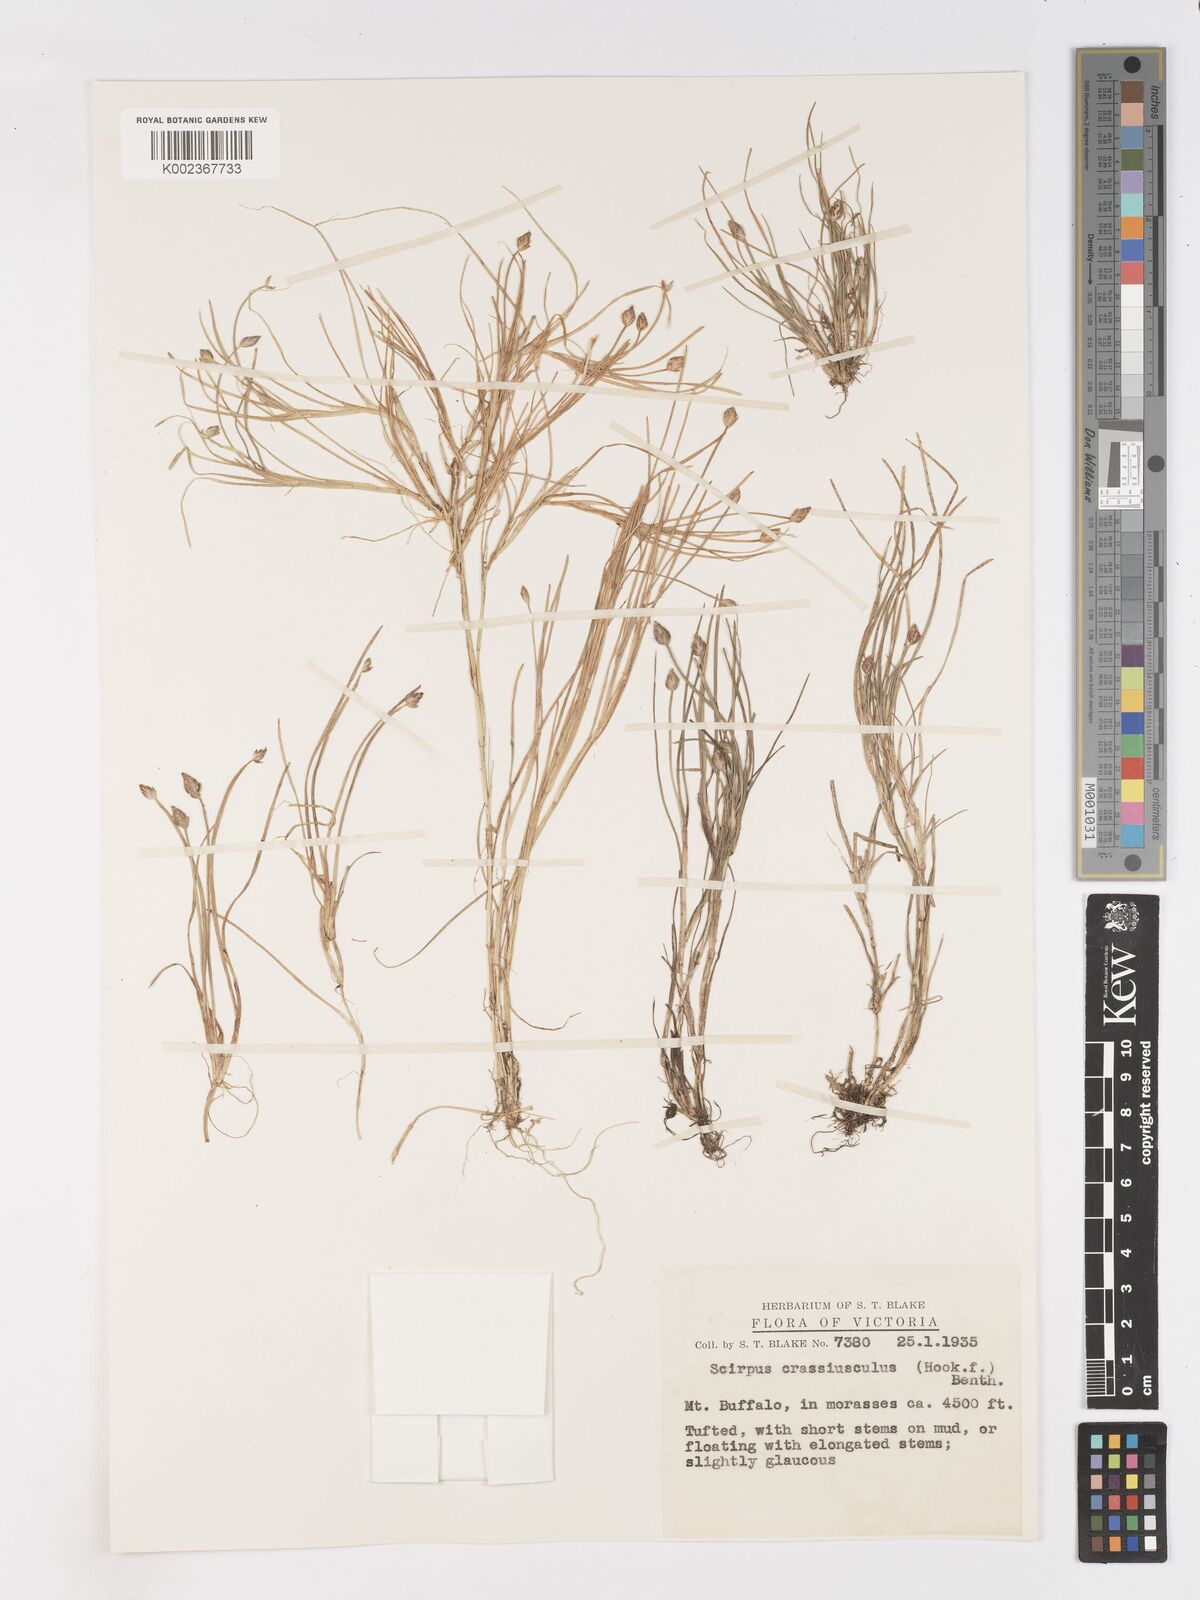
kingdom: Plantae
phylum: Tracheophyta
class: Liliopsida
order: Poales
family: Cyperaceae
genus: Isolepis
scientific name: Isolepis crassiuscula
